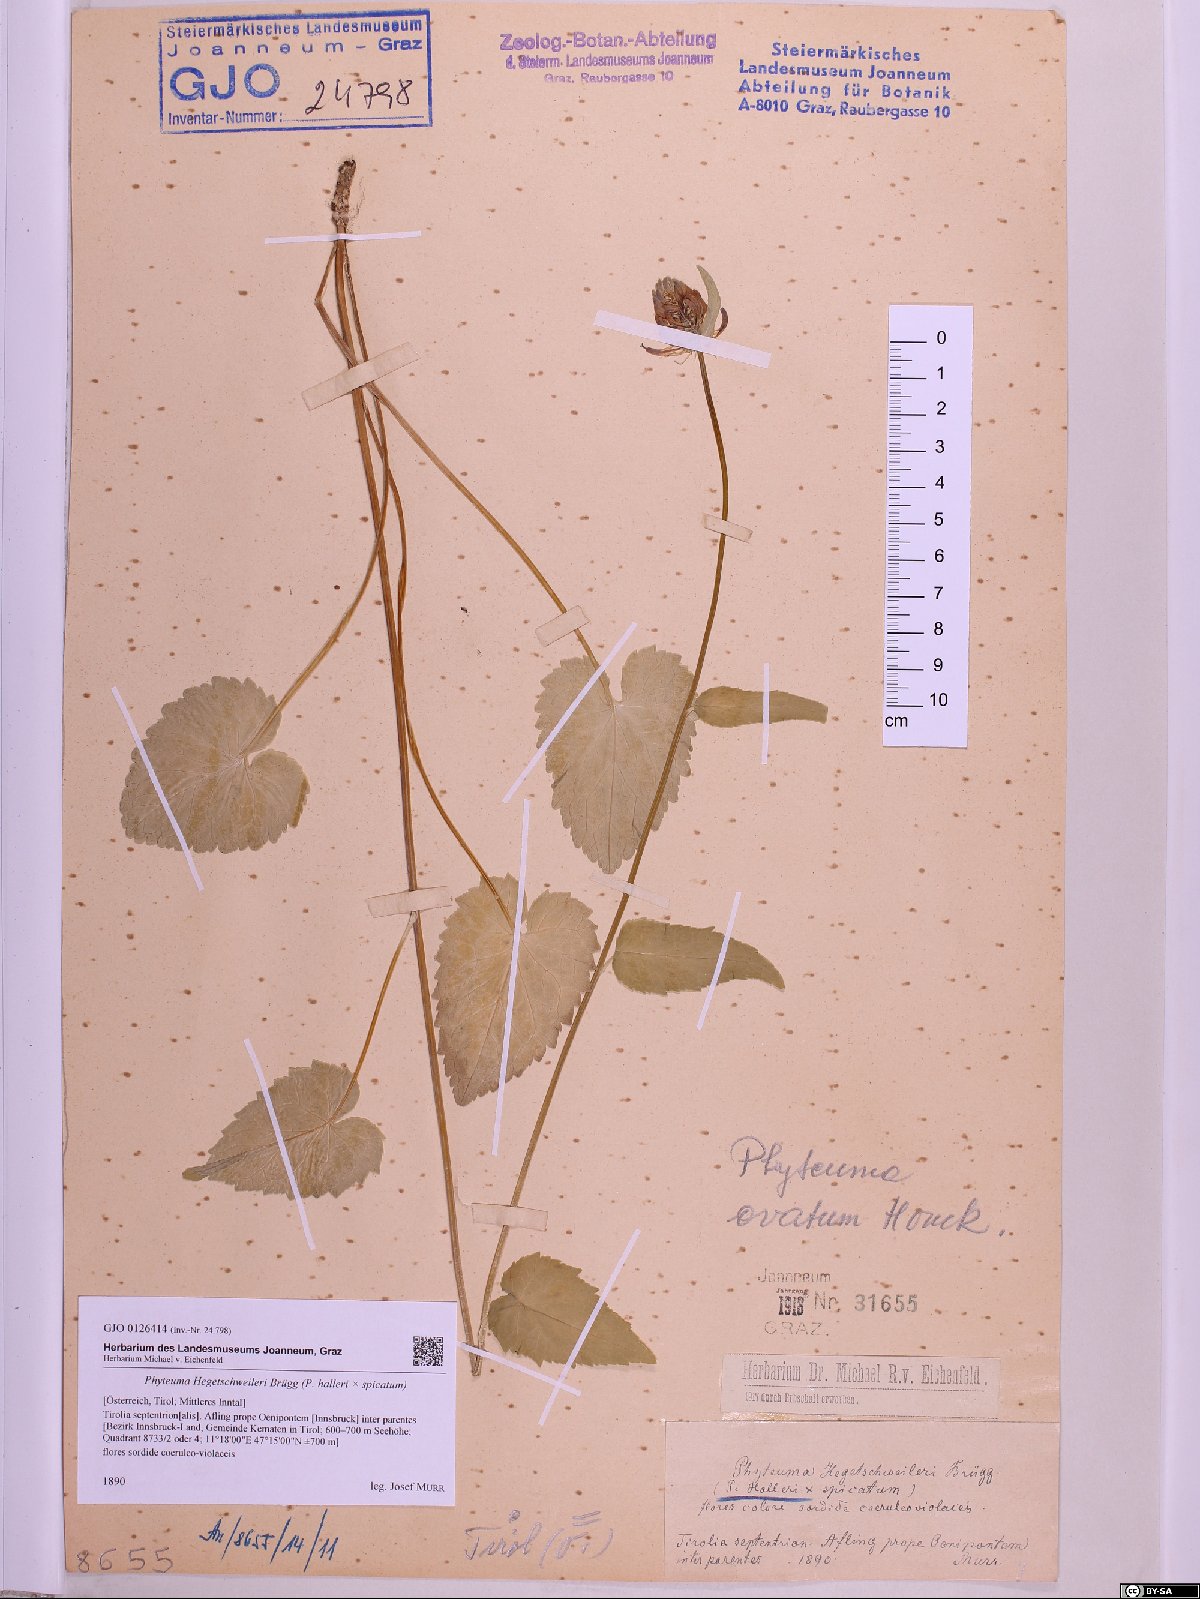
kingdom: Plantae
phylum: Tracheophyta
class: Magnoliopsida
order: Asterales
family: Campanulaceae
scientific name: Campanulaceae
